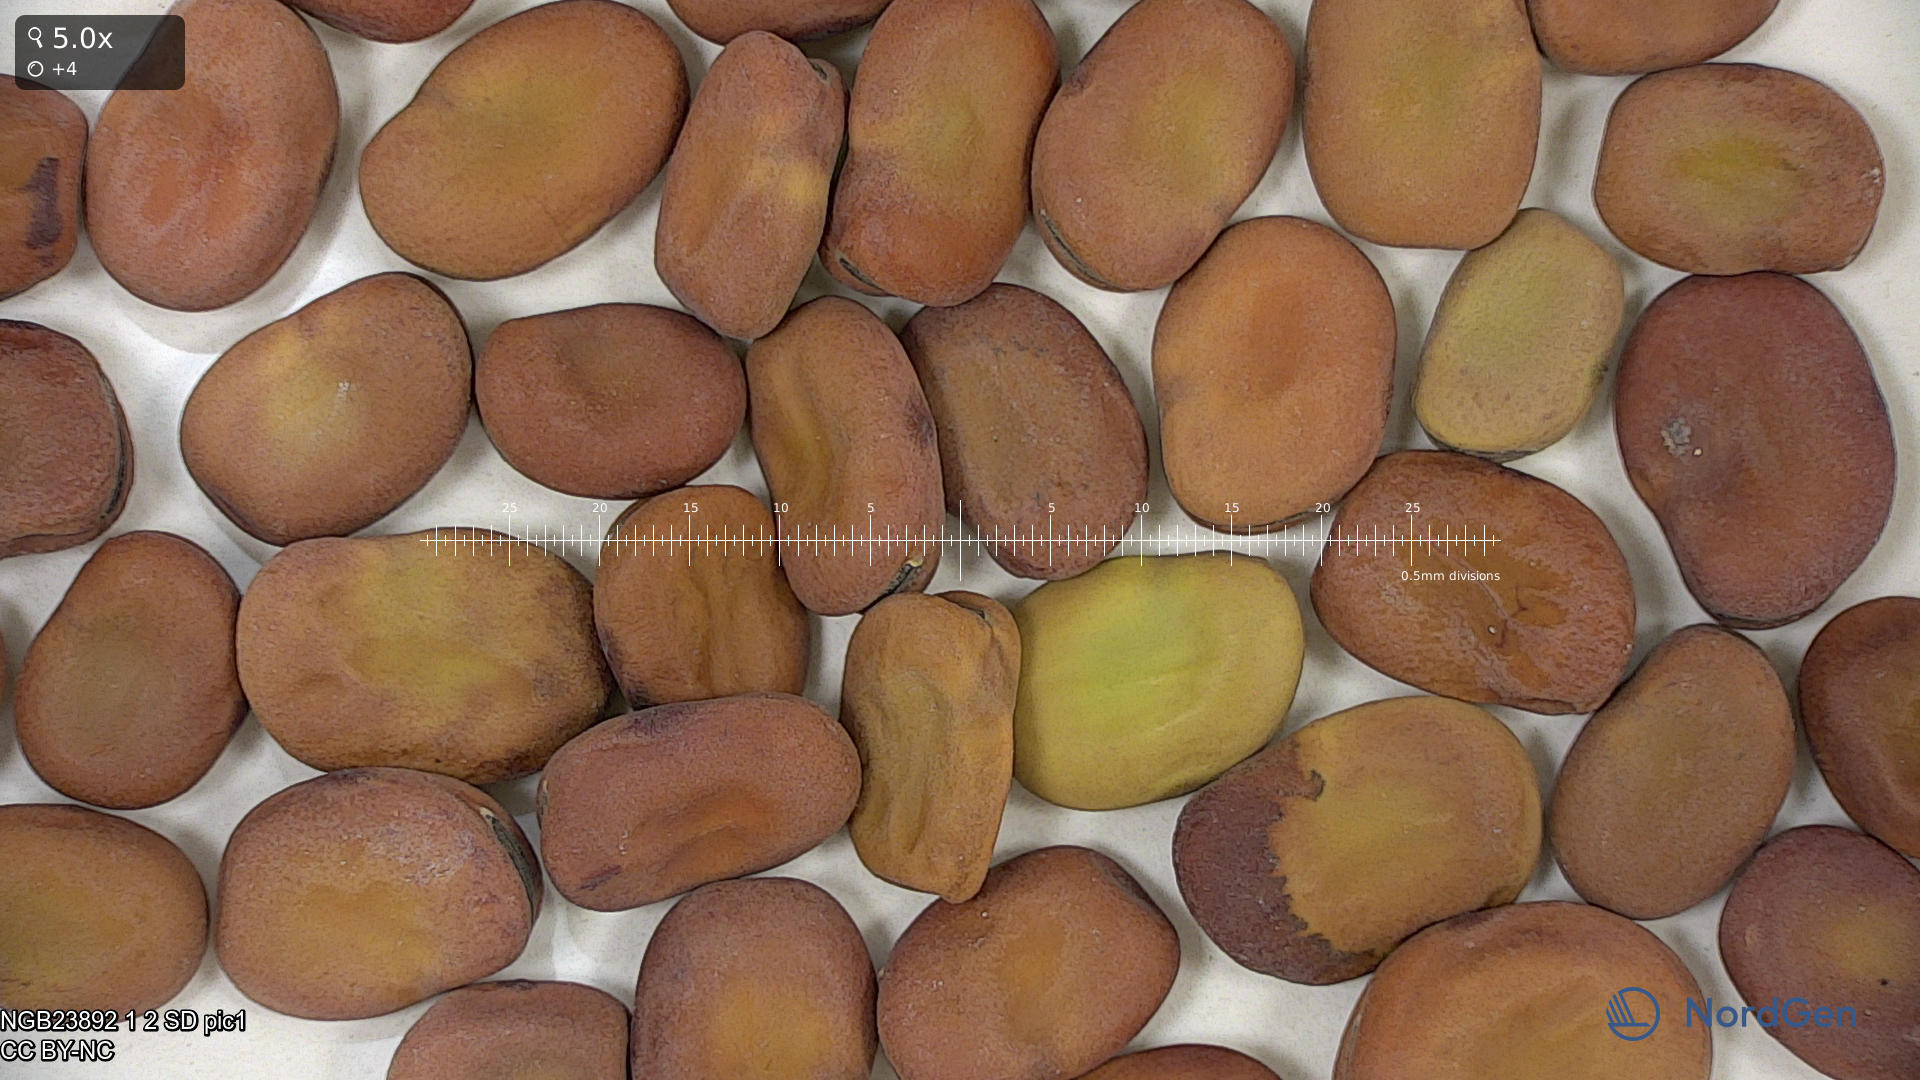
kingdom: Plantae
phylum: Tracheophyta
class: Magnoliopsida
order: Fabales
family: Fabaceae
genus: Vicia
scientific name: Vicia faba
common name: Broad bean
